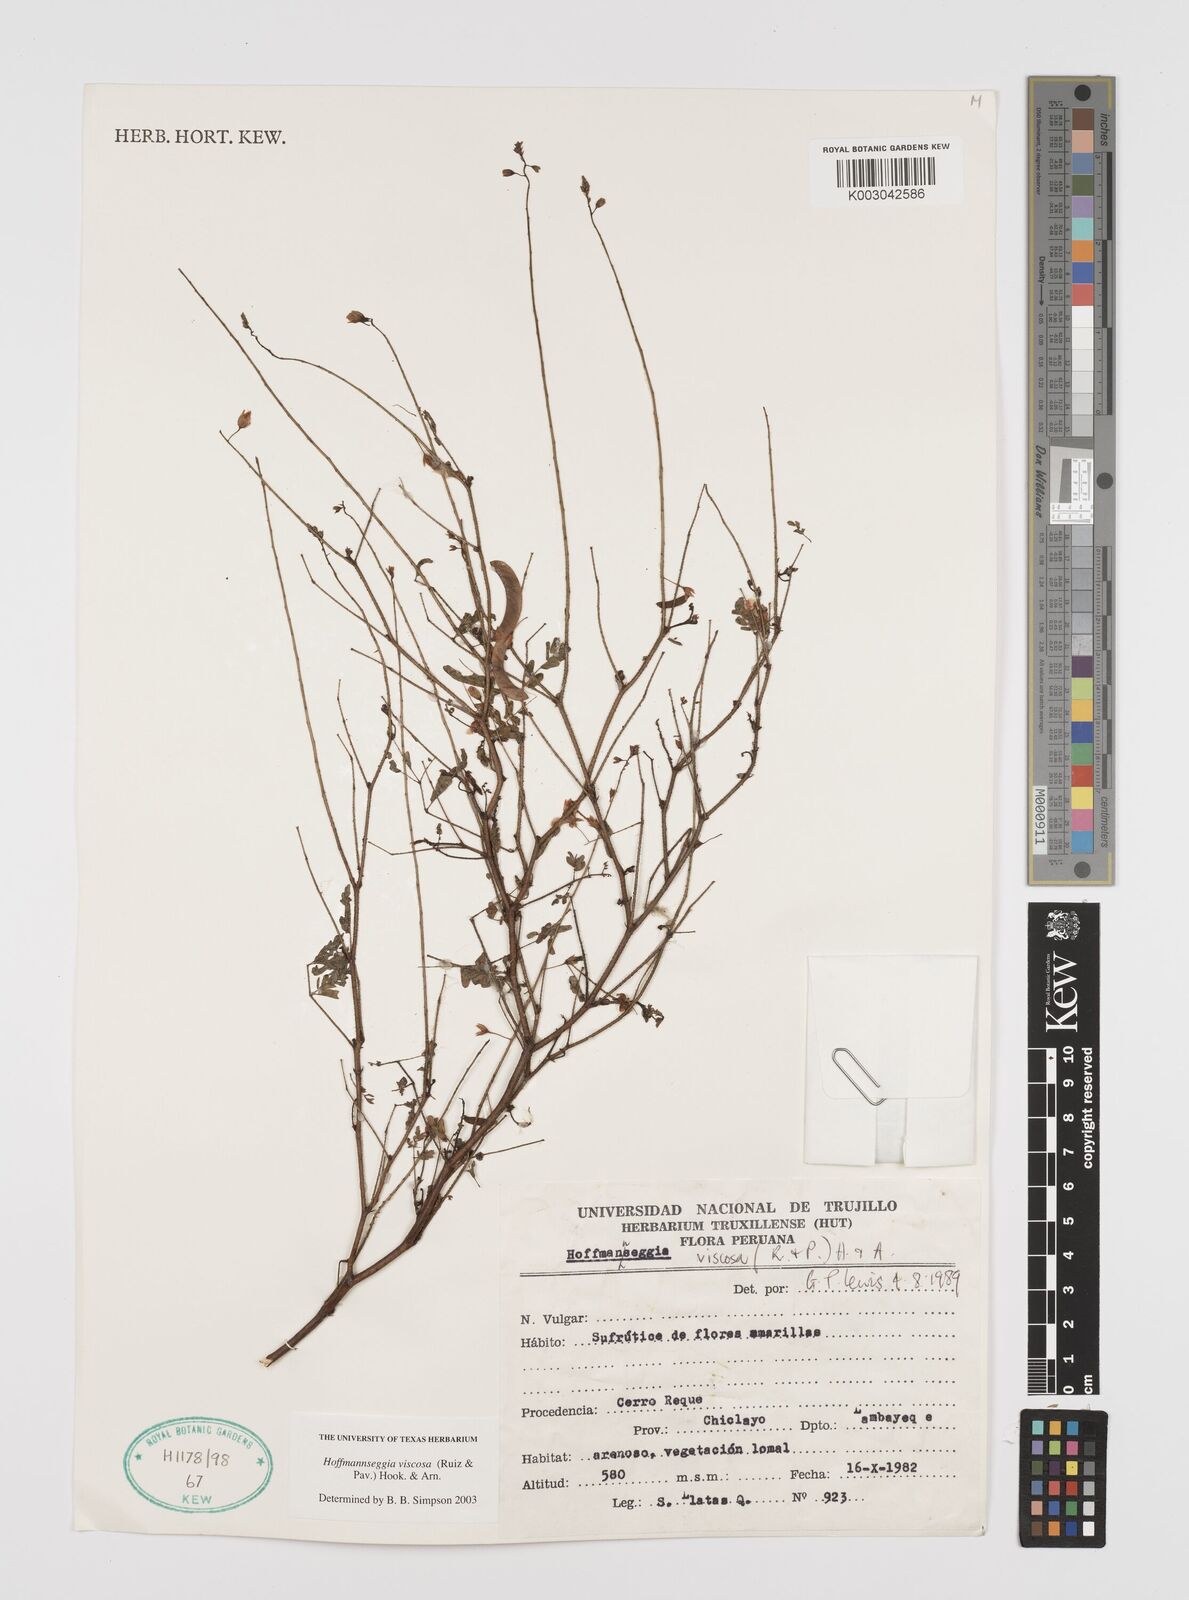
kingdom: Plantae
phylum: Tracheophyta
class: Magnoliopsida
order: Fabales
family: Fabaceae
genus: Hoffmannseggia
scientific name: Hoffmannseggia viscosa
